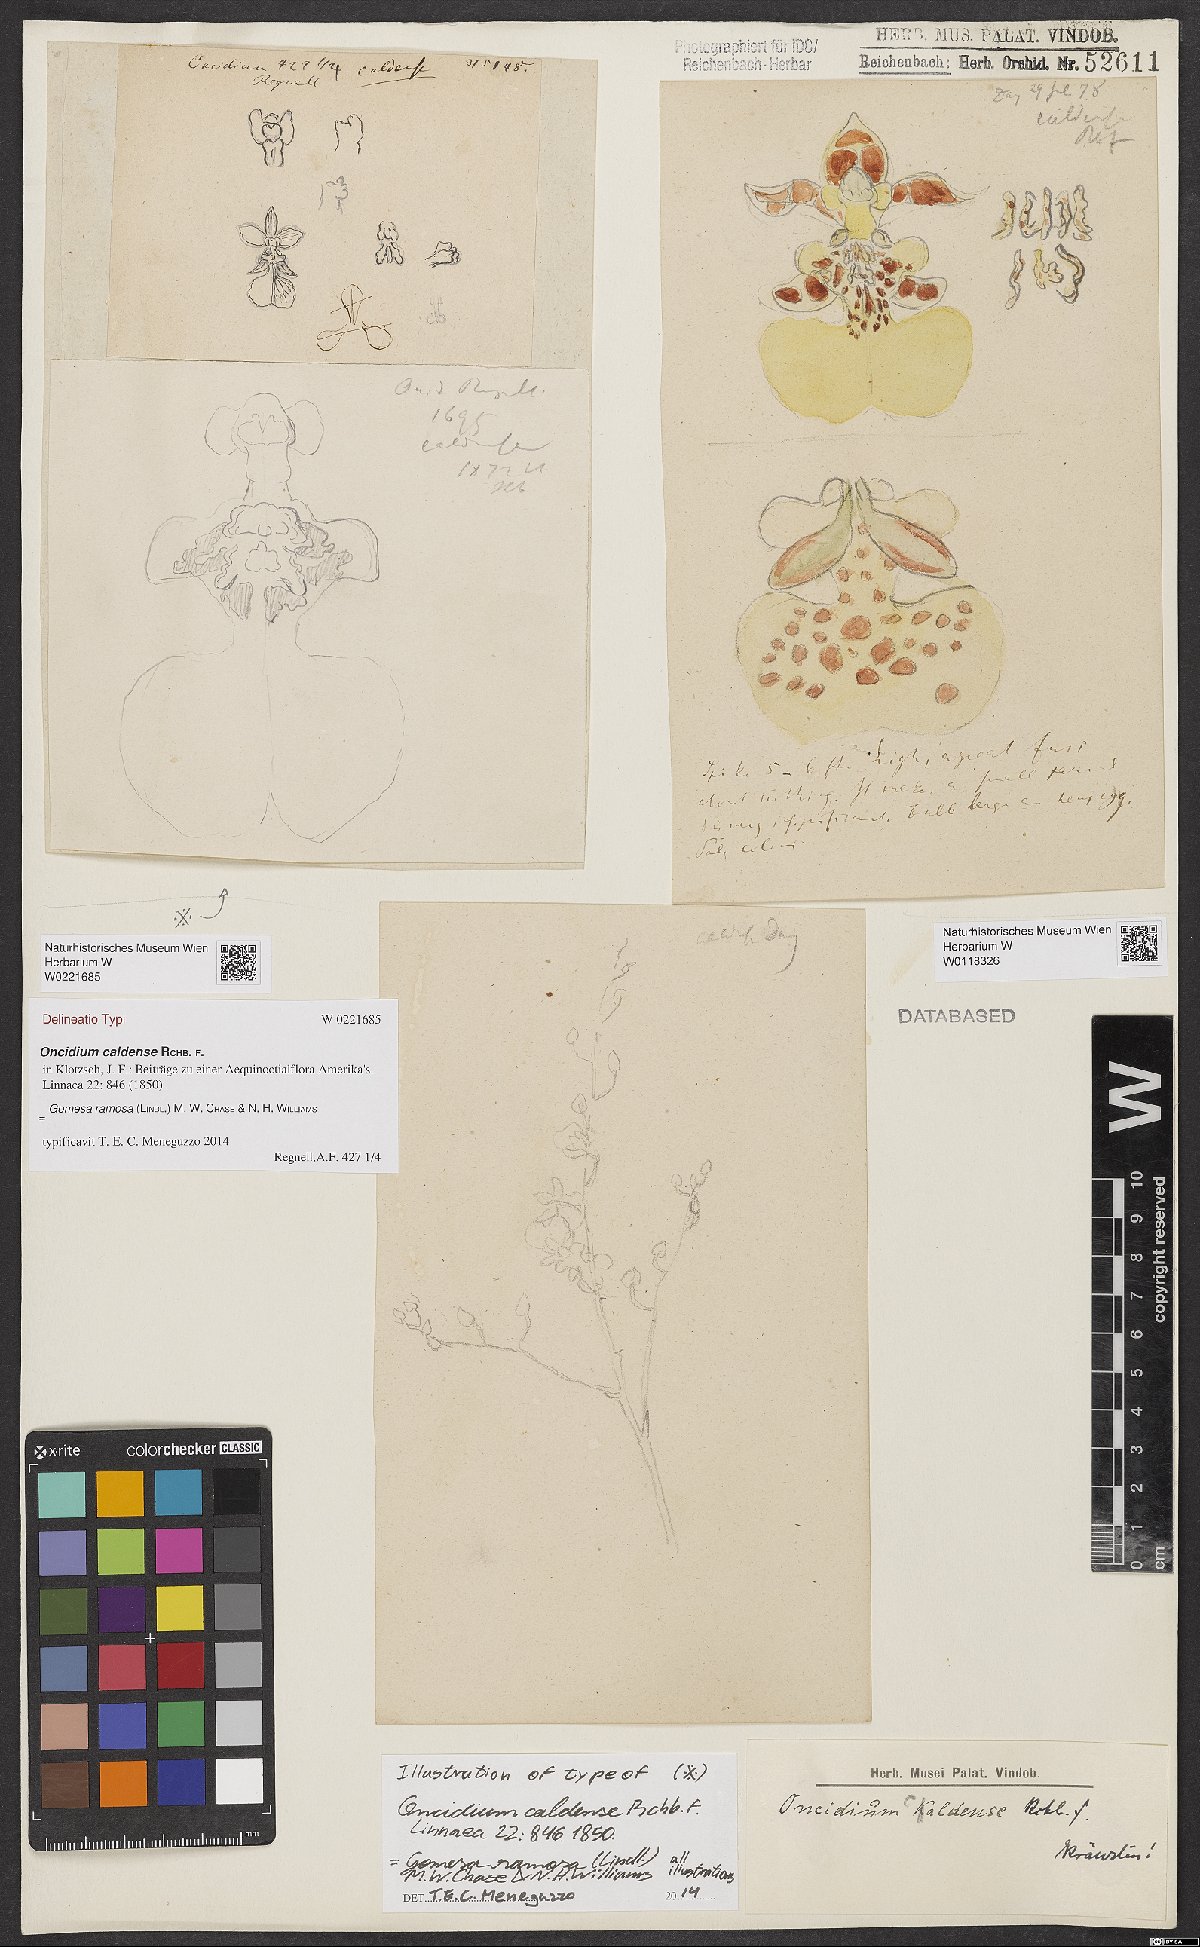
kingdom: Plantae
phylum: Tracheophyta
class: Liliopsida
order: Asparagales
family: Orchidaceae
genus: Gomesa
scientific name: Gomesa caldensis
